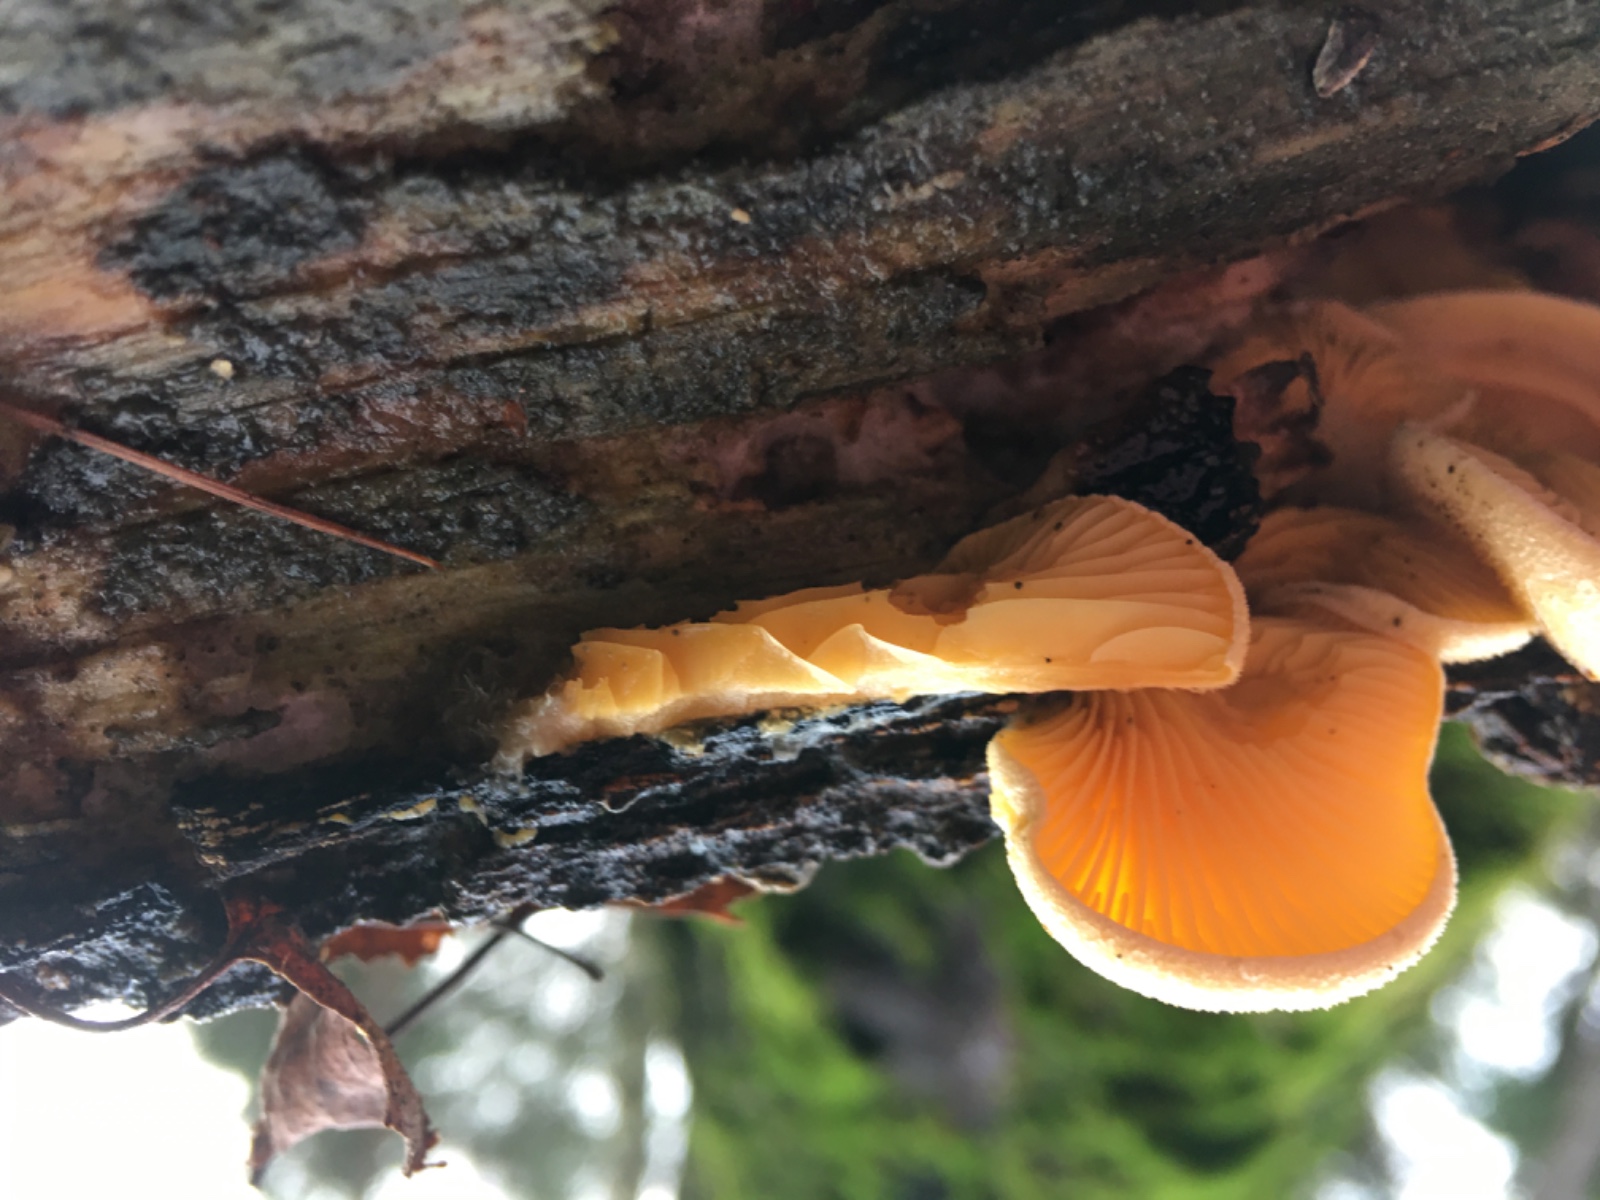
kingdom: Fungi
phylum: Basidiomycota
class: Agaricomycetes
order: Agaricales
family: Phyllotopsidaceae
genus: Phyllotopsis
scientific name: Phyllotopsis nidulans
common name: okkerblad
